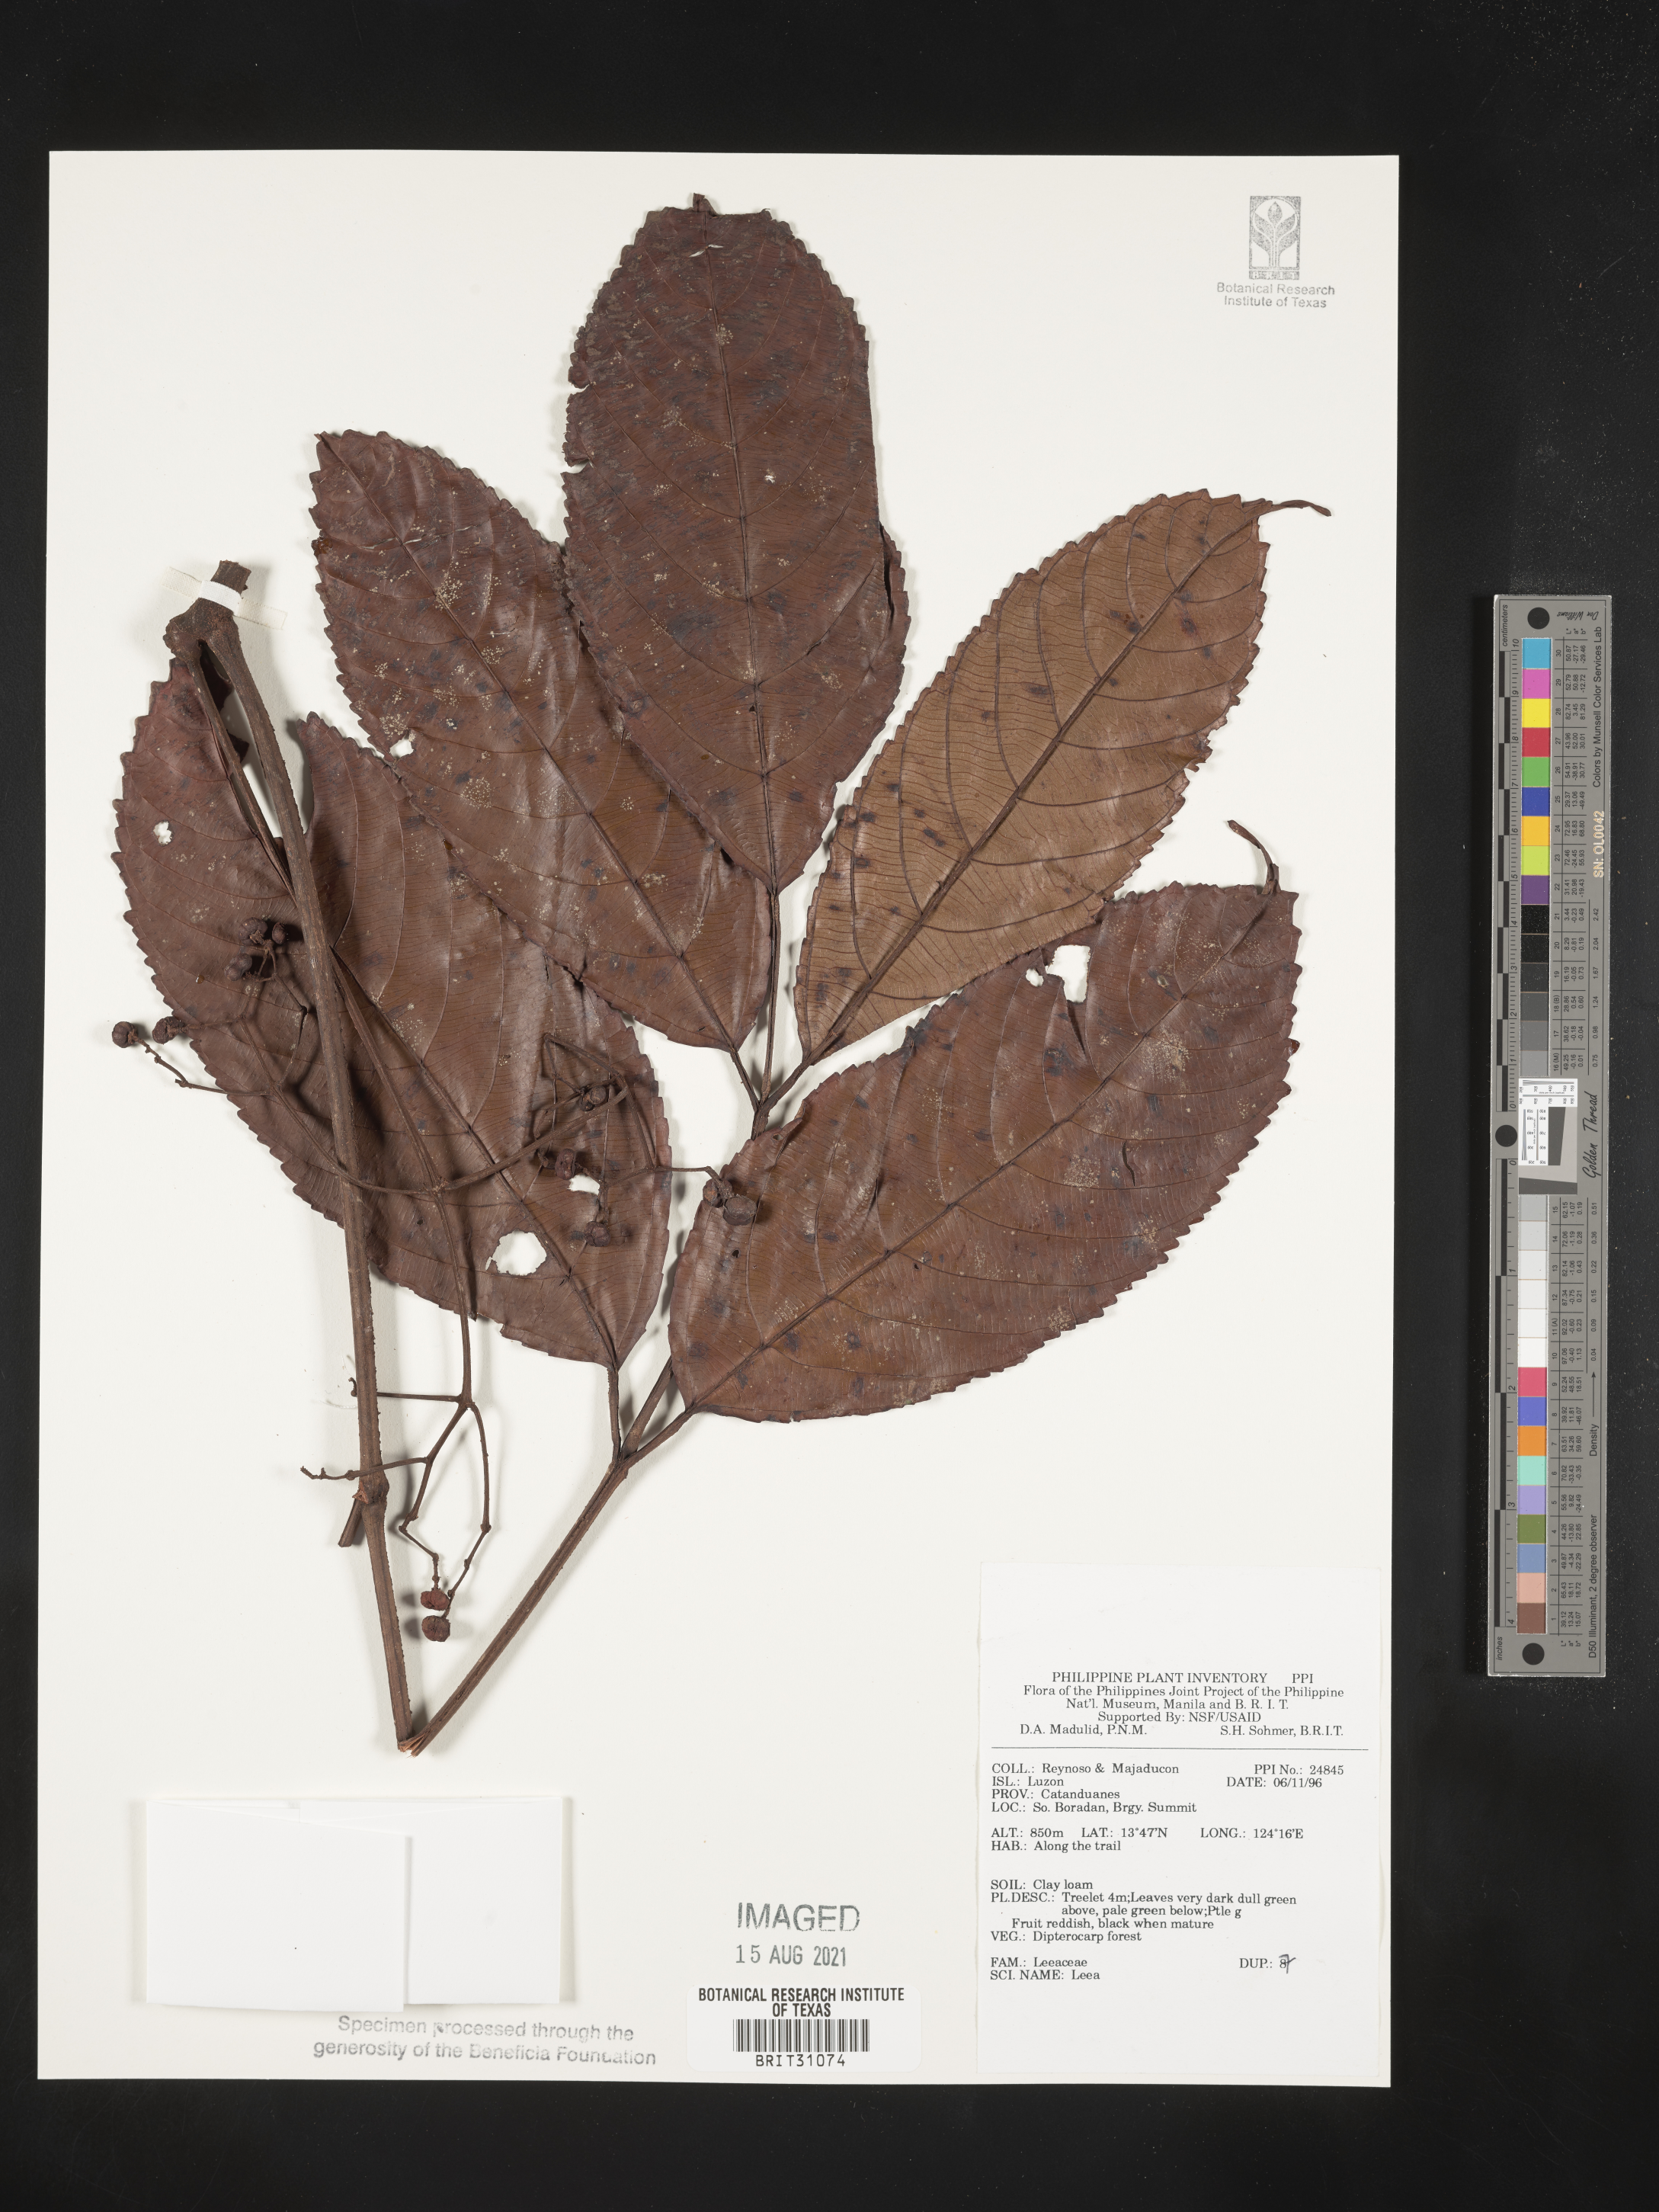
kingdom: Plantae
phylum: Tracheophyta
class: Magnoliopsida
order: Vitales
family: Vitaceae
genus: Leea
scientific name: Leea
